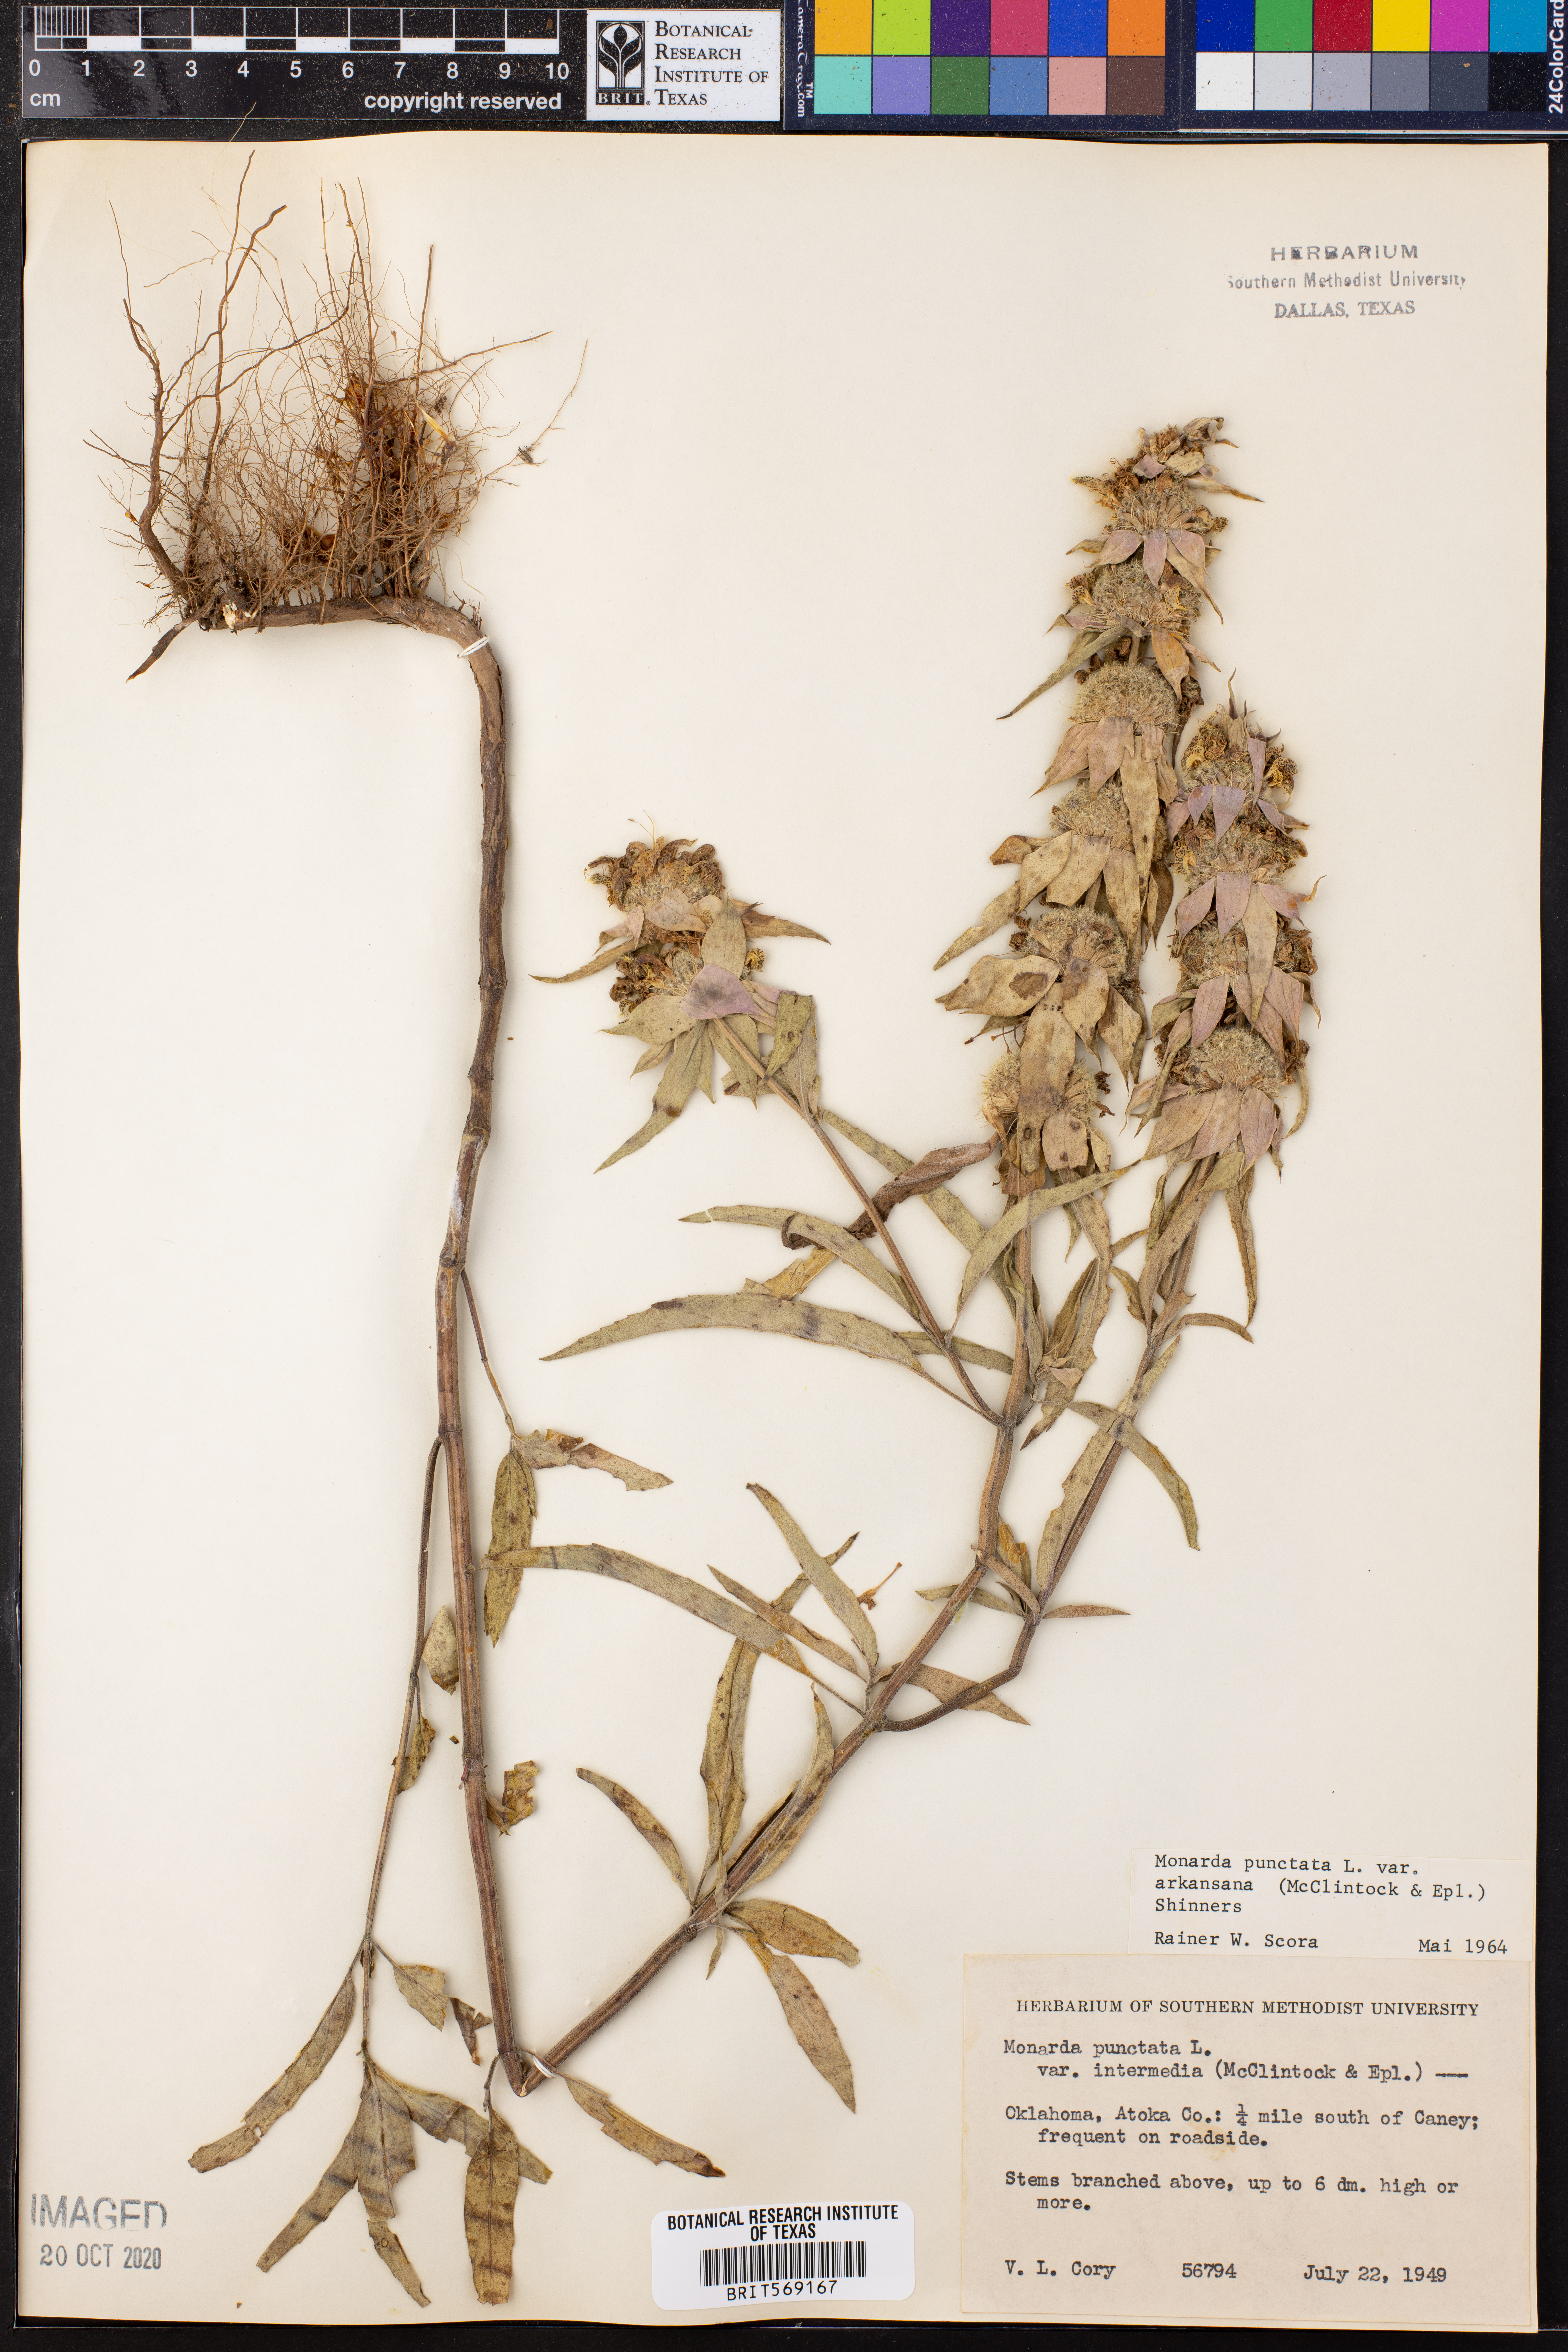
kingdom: Plantae
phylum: Tracheophyta
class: Magnoliopsida
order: Lamiales
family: Lamiaceae
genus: Monarda
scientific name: Monarda punctata
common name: Dotted monarda
